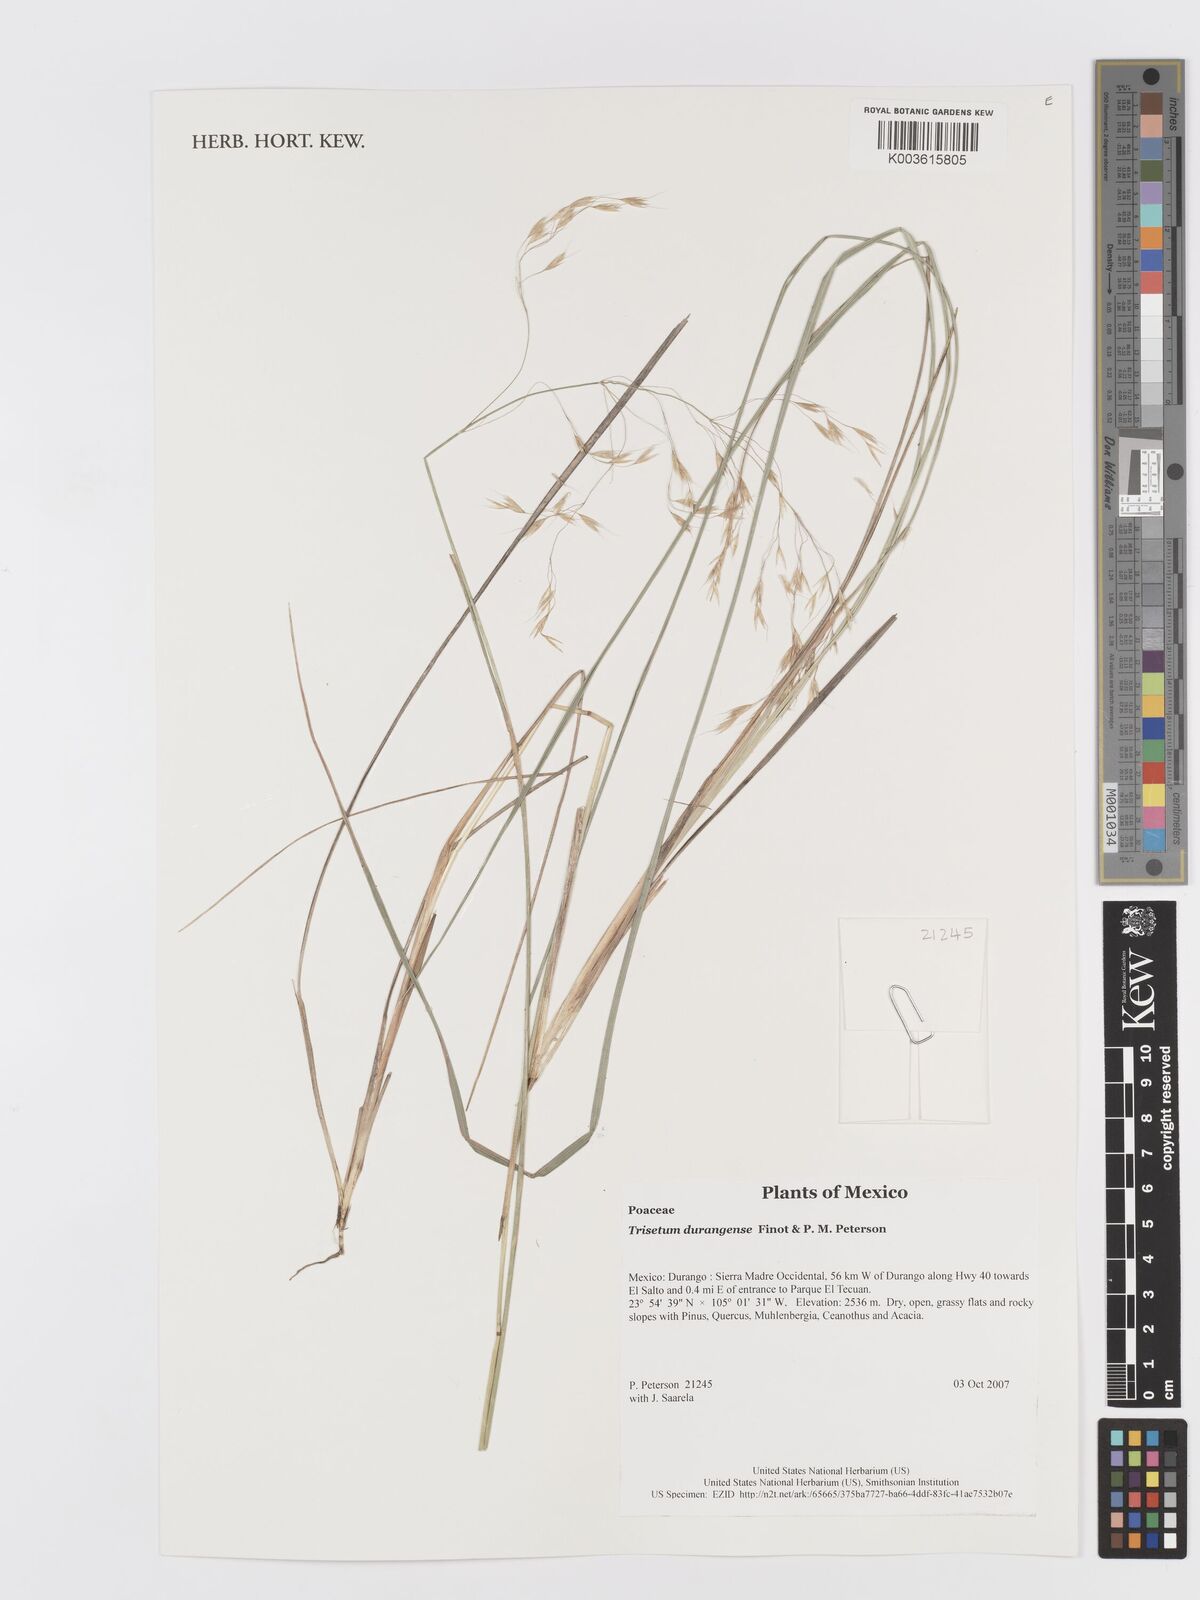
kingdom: Plantae
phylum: Tracheophyta
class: Liliopsida
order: Poales
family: Poaceae
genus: Peyritschia
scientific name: Peyritschia durangensis
